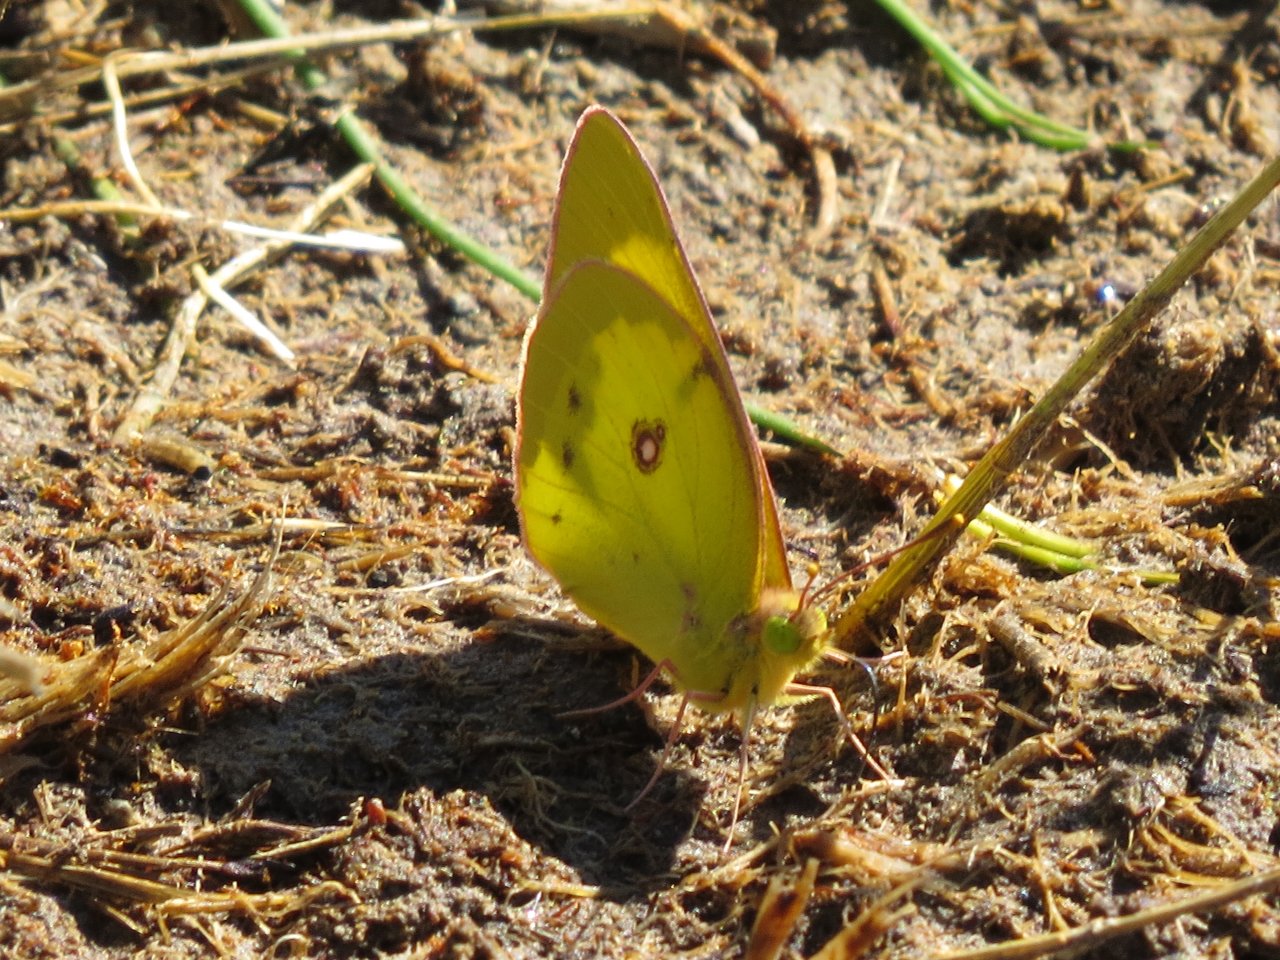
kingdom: Animalia
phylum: Arthropoda
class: Insecta
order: Lepidoptera
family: Pieridae
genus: Colias
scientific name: Colias philodice
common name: Clouded Sulphur
